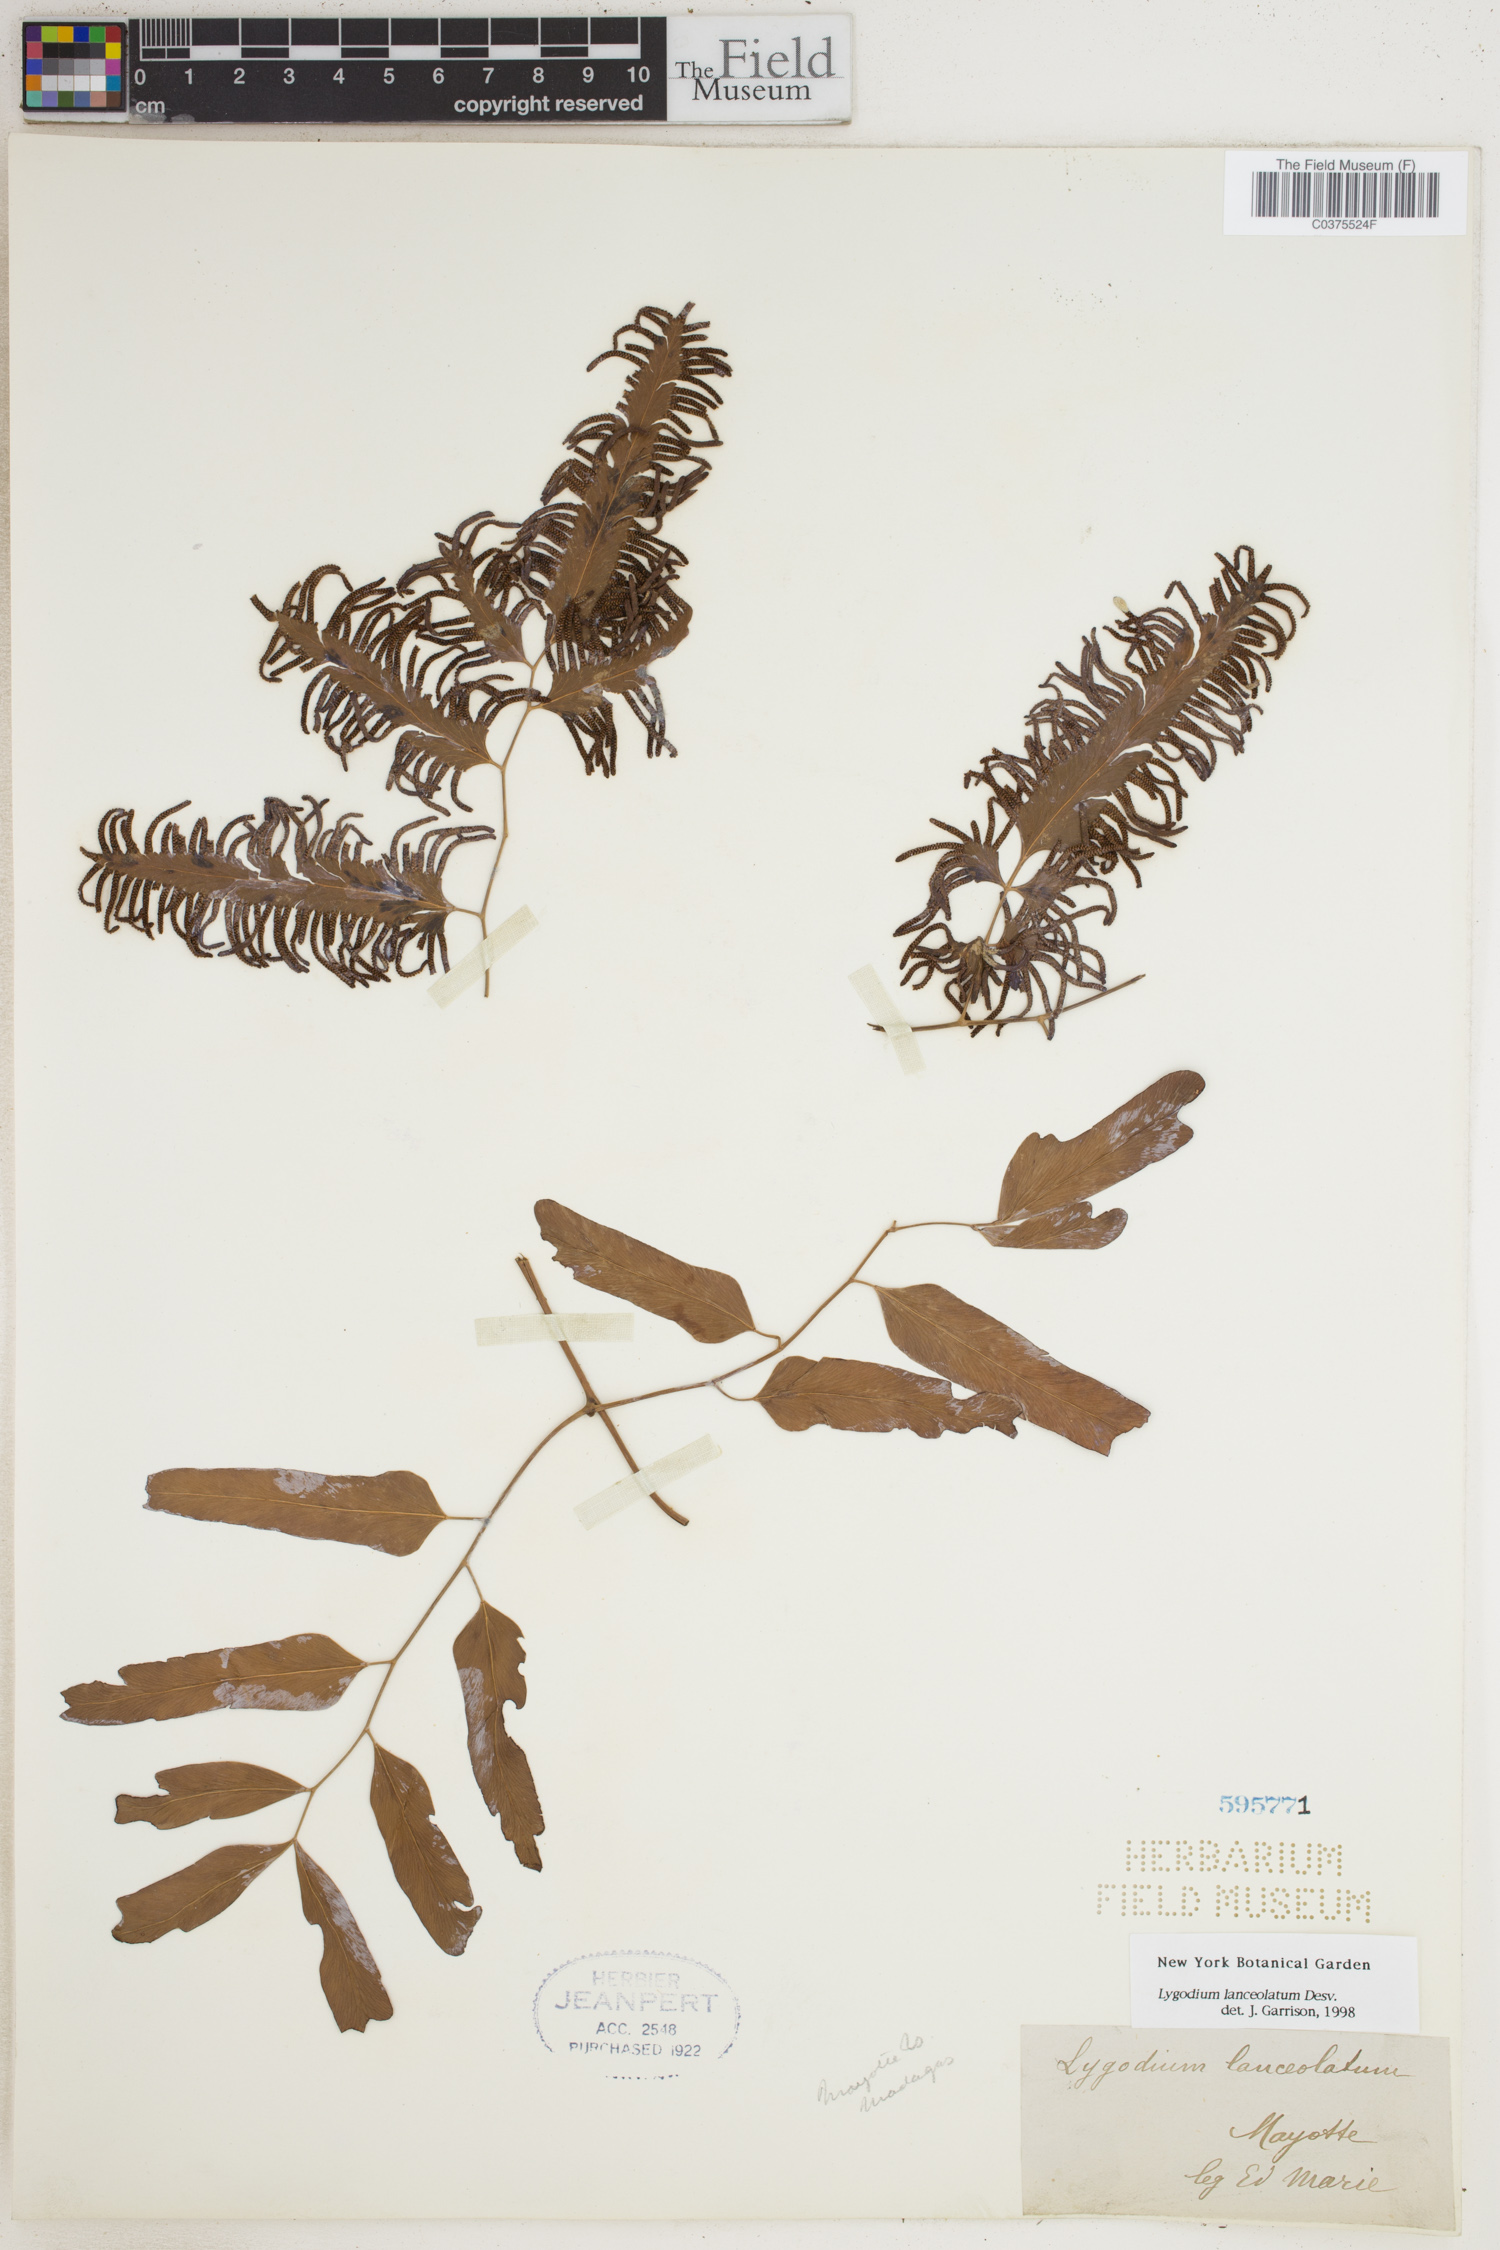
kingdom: Plantae
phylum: Tracheophyta
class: Polypodiopsida
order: Schizaeales
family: Lygodiaceae
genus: Lygodium
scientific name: Lygodium lanceolatum
